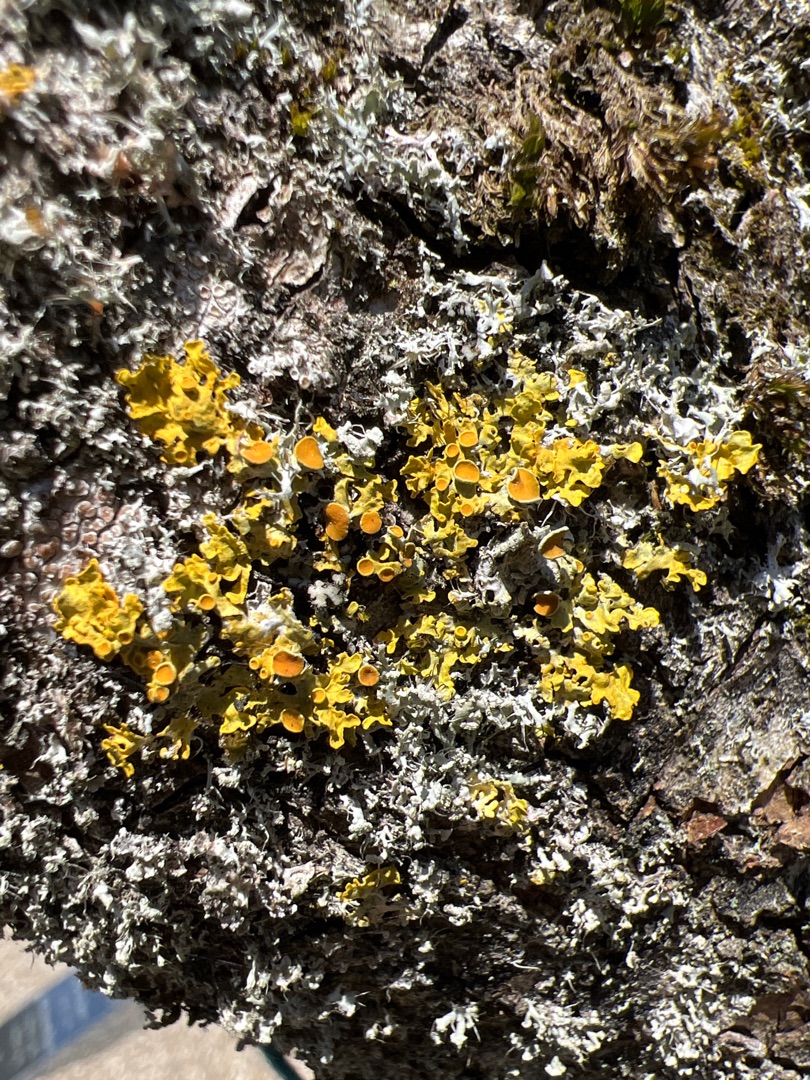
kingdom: Fungi
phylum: Ascomycota
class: Lecanoromycetes
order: Teloschistales
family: Teloschistaceae
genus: Xanthoria
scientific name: Xanthoria parietina
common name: Almindelig væggelav
